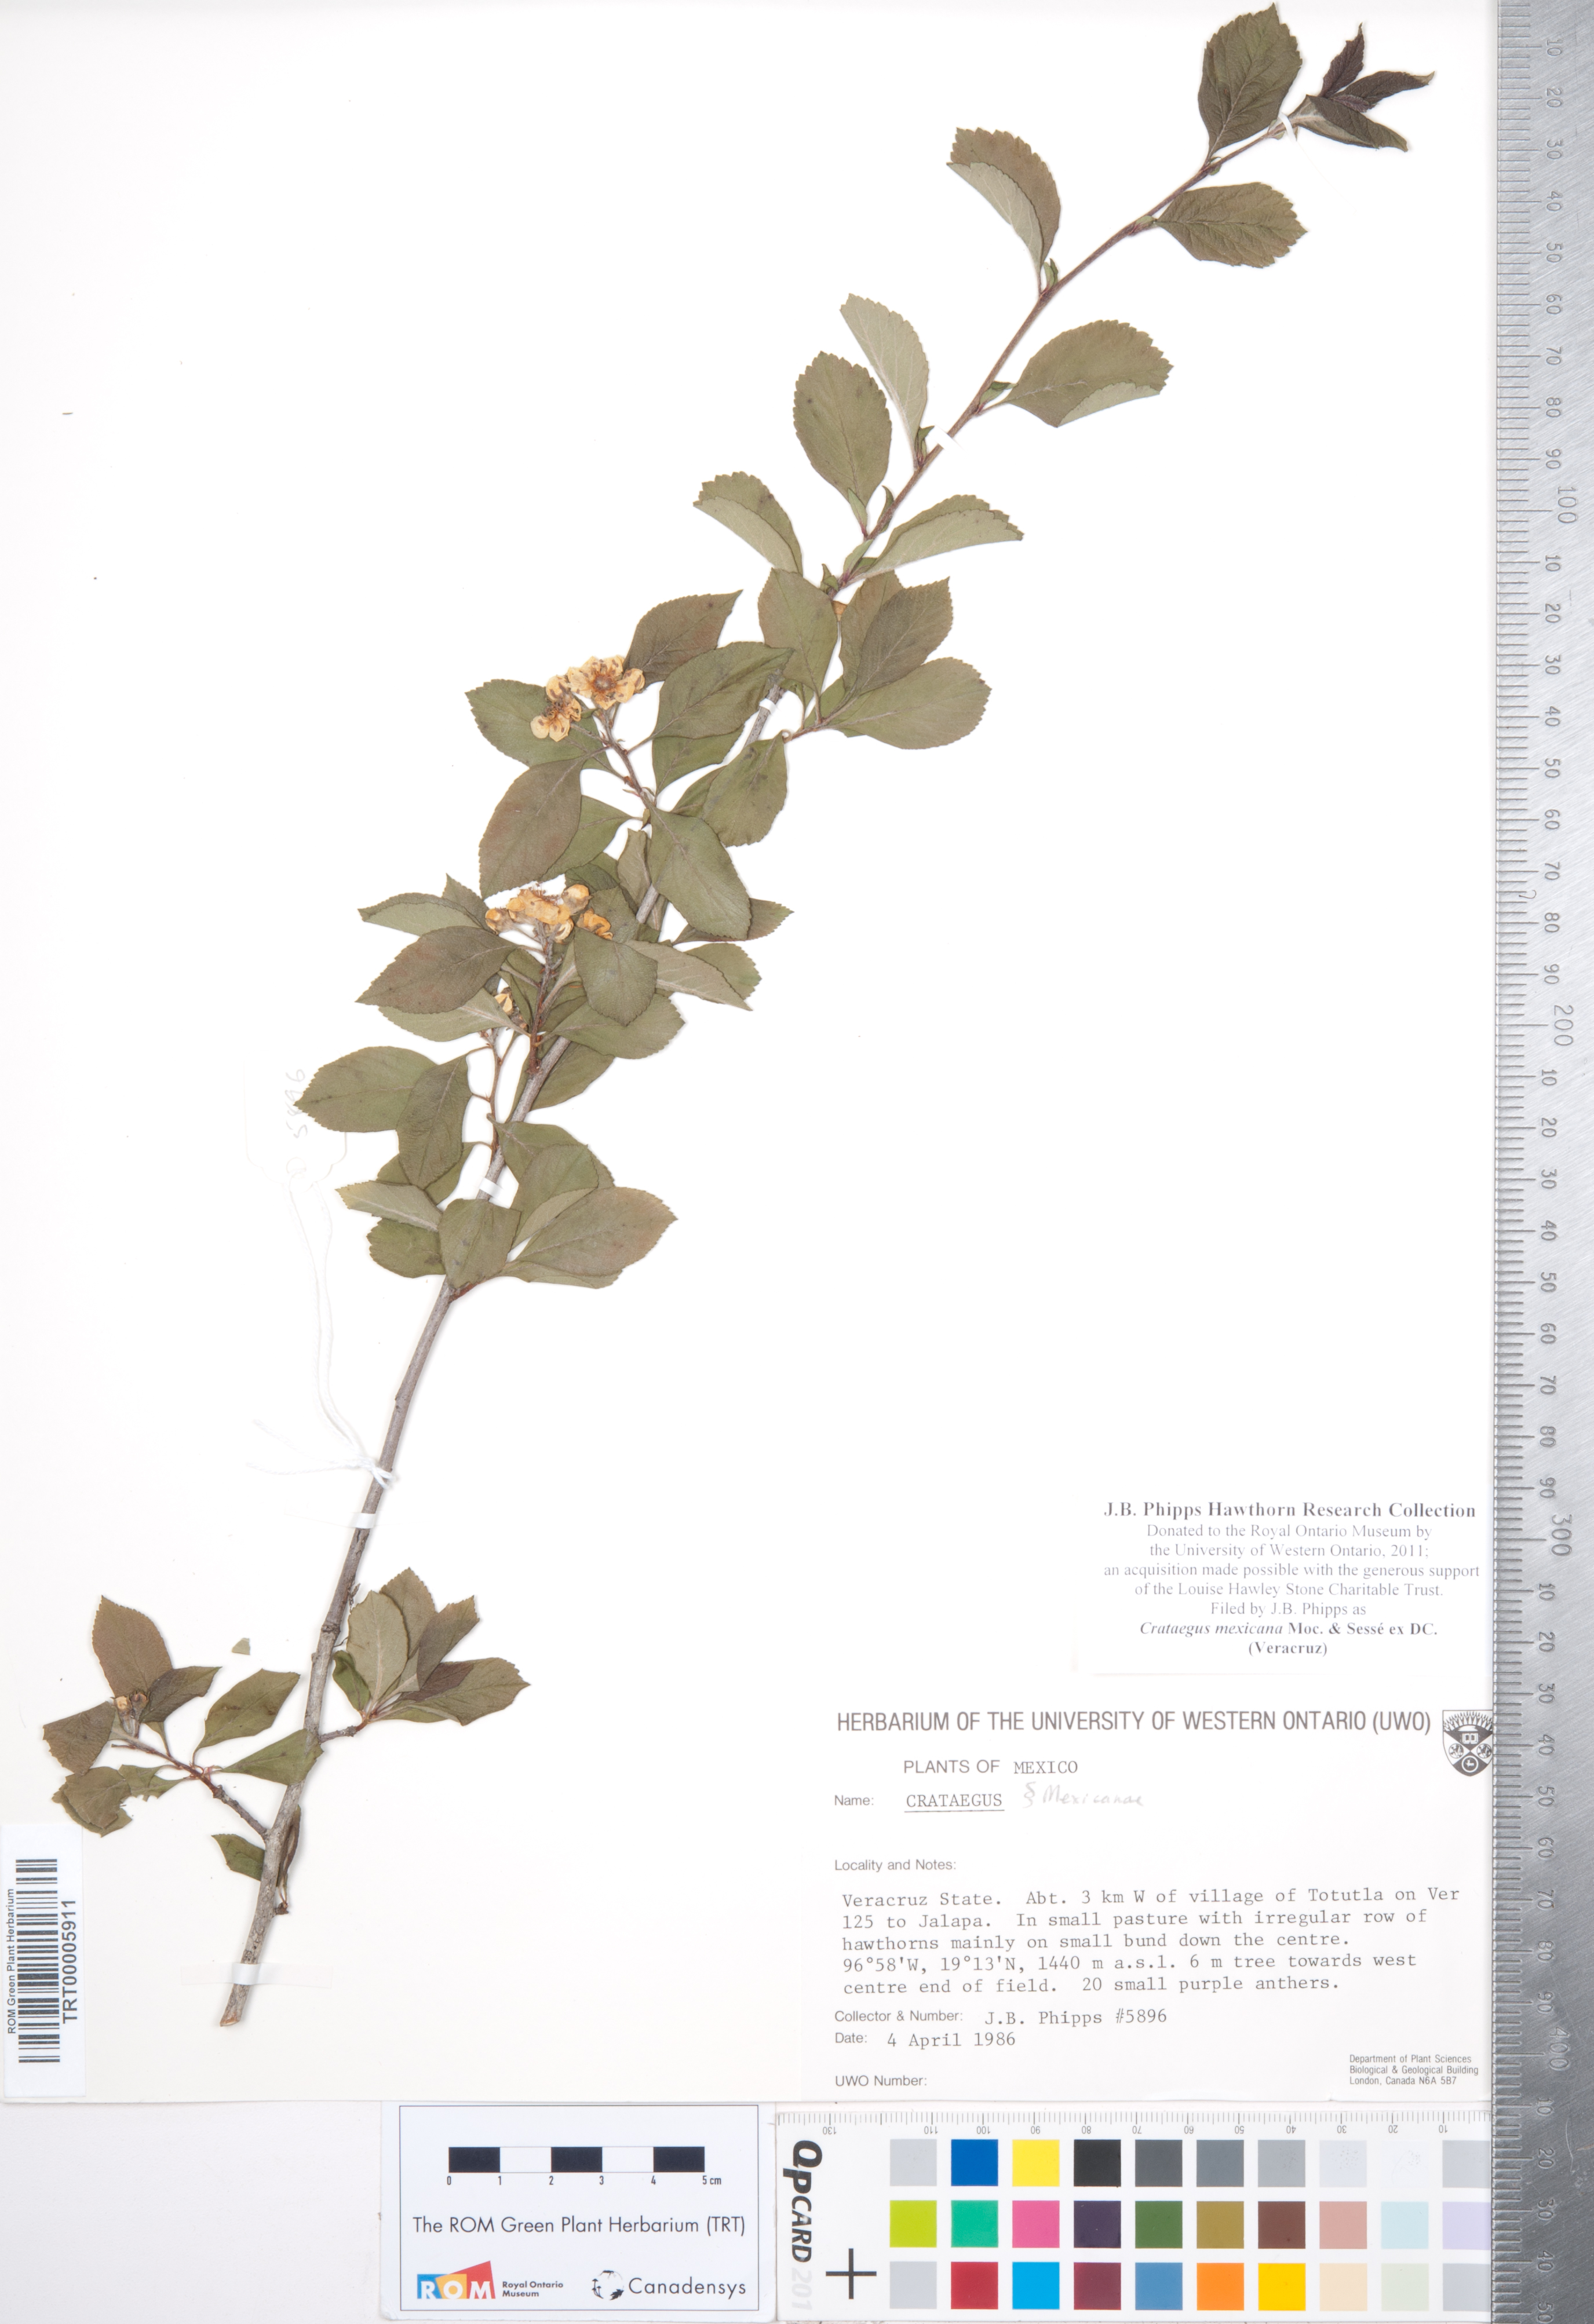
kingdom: Plantae
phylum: Tracheophyta
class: Magnoliopsida
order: Rosales
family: Rosaceae
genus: Crataegus
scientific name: Crataegus mexicana
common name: Mexican hawthorn
